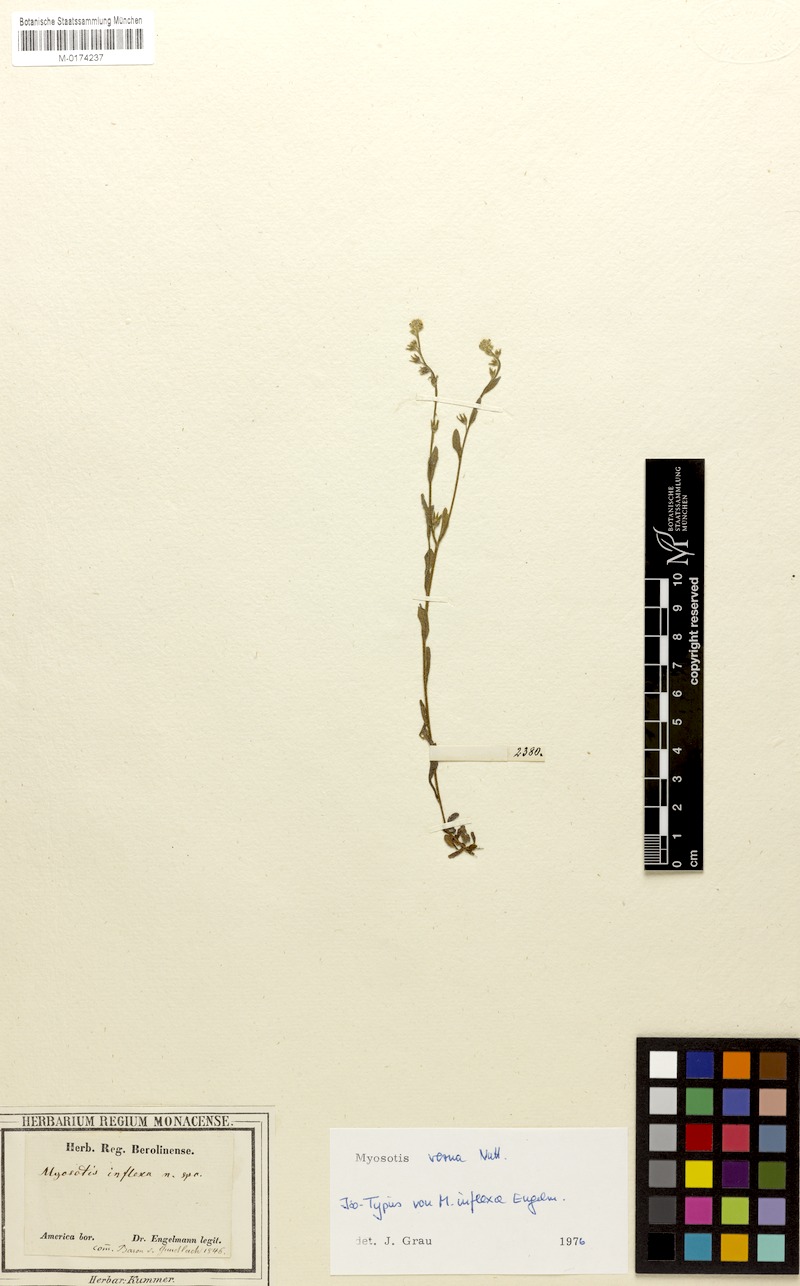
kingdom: Plantae
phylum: Tracheophyta
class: Magnoliopsida
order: Boraginales
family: Boraginaceae
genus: Myosotis
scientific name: Myosotis verna
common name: Early forget-me-not
